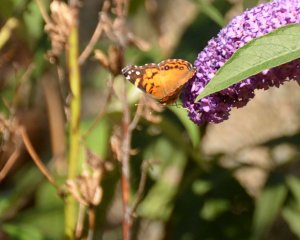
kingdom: Animalia
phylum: Arthropoda
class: Insecta
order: Lepidoptera
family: Nymphalidae
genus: Vanessa
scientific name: Vanessa virginiensis
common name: American Lady
